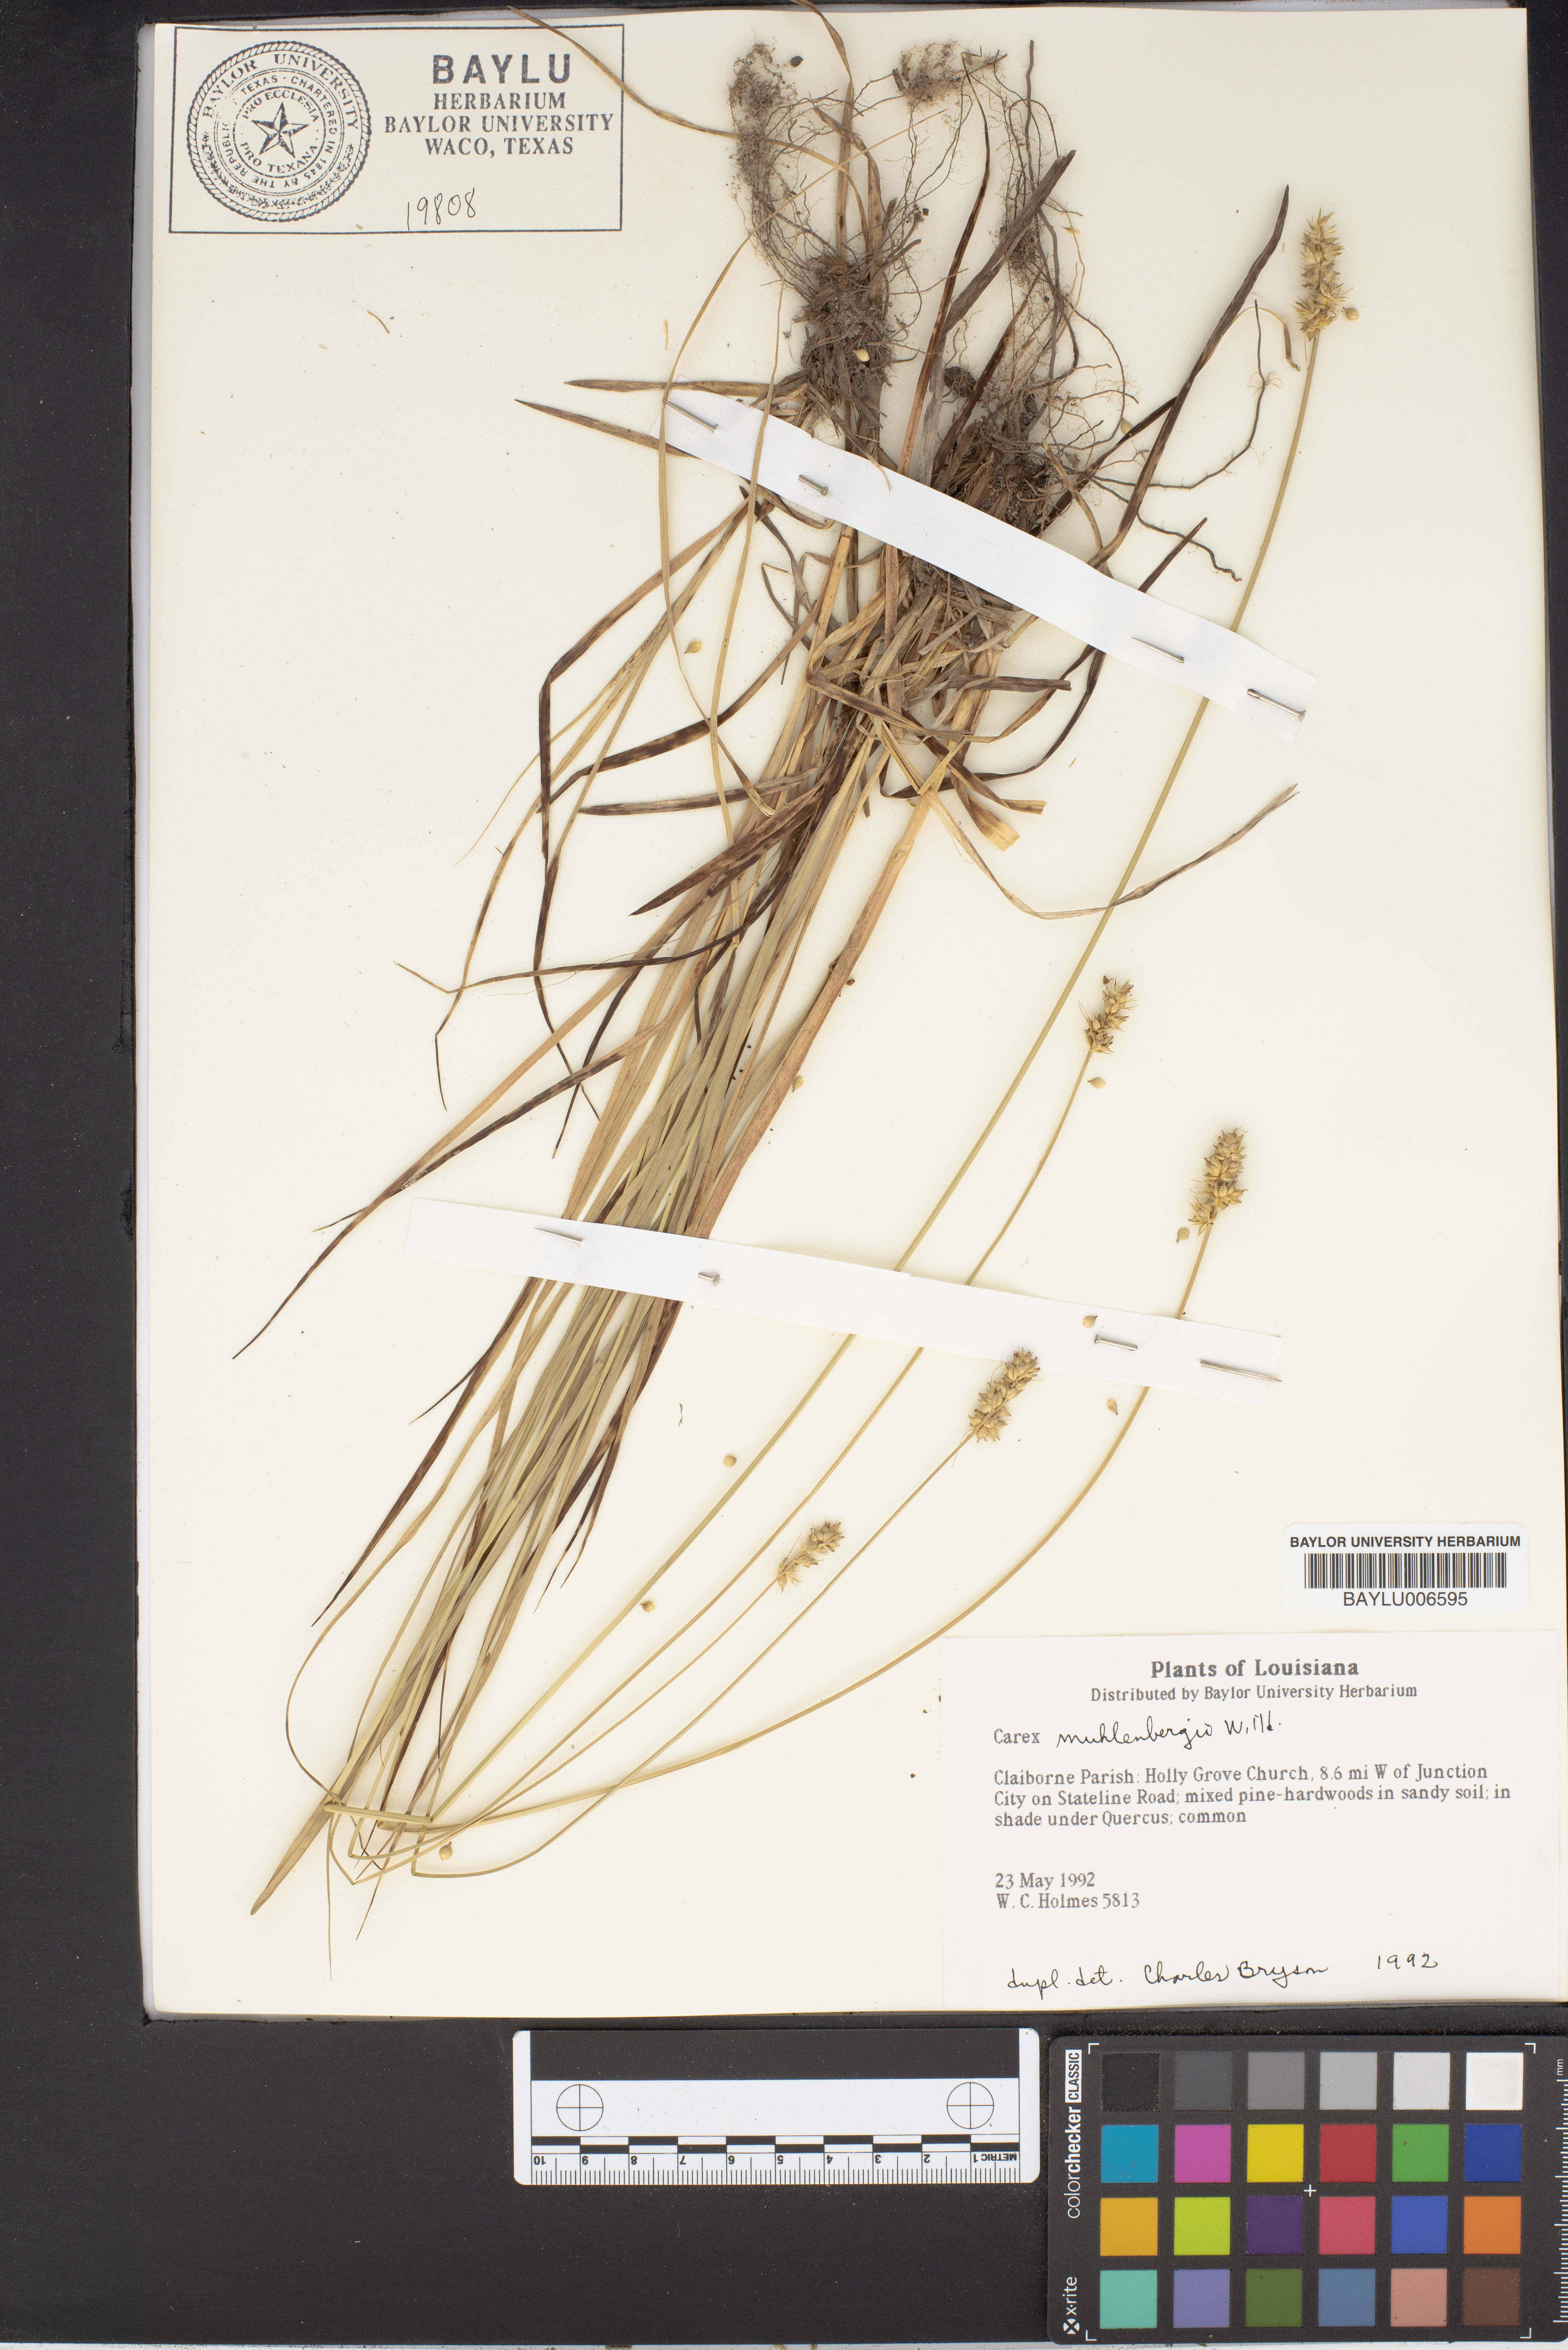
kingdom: Plantae
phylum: Tracheophyta
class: Liliopsida
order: Poales
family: Cyperaceae
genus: Carex
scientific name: Carex vulpinoidea
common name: American fox-sedge
